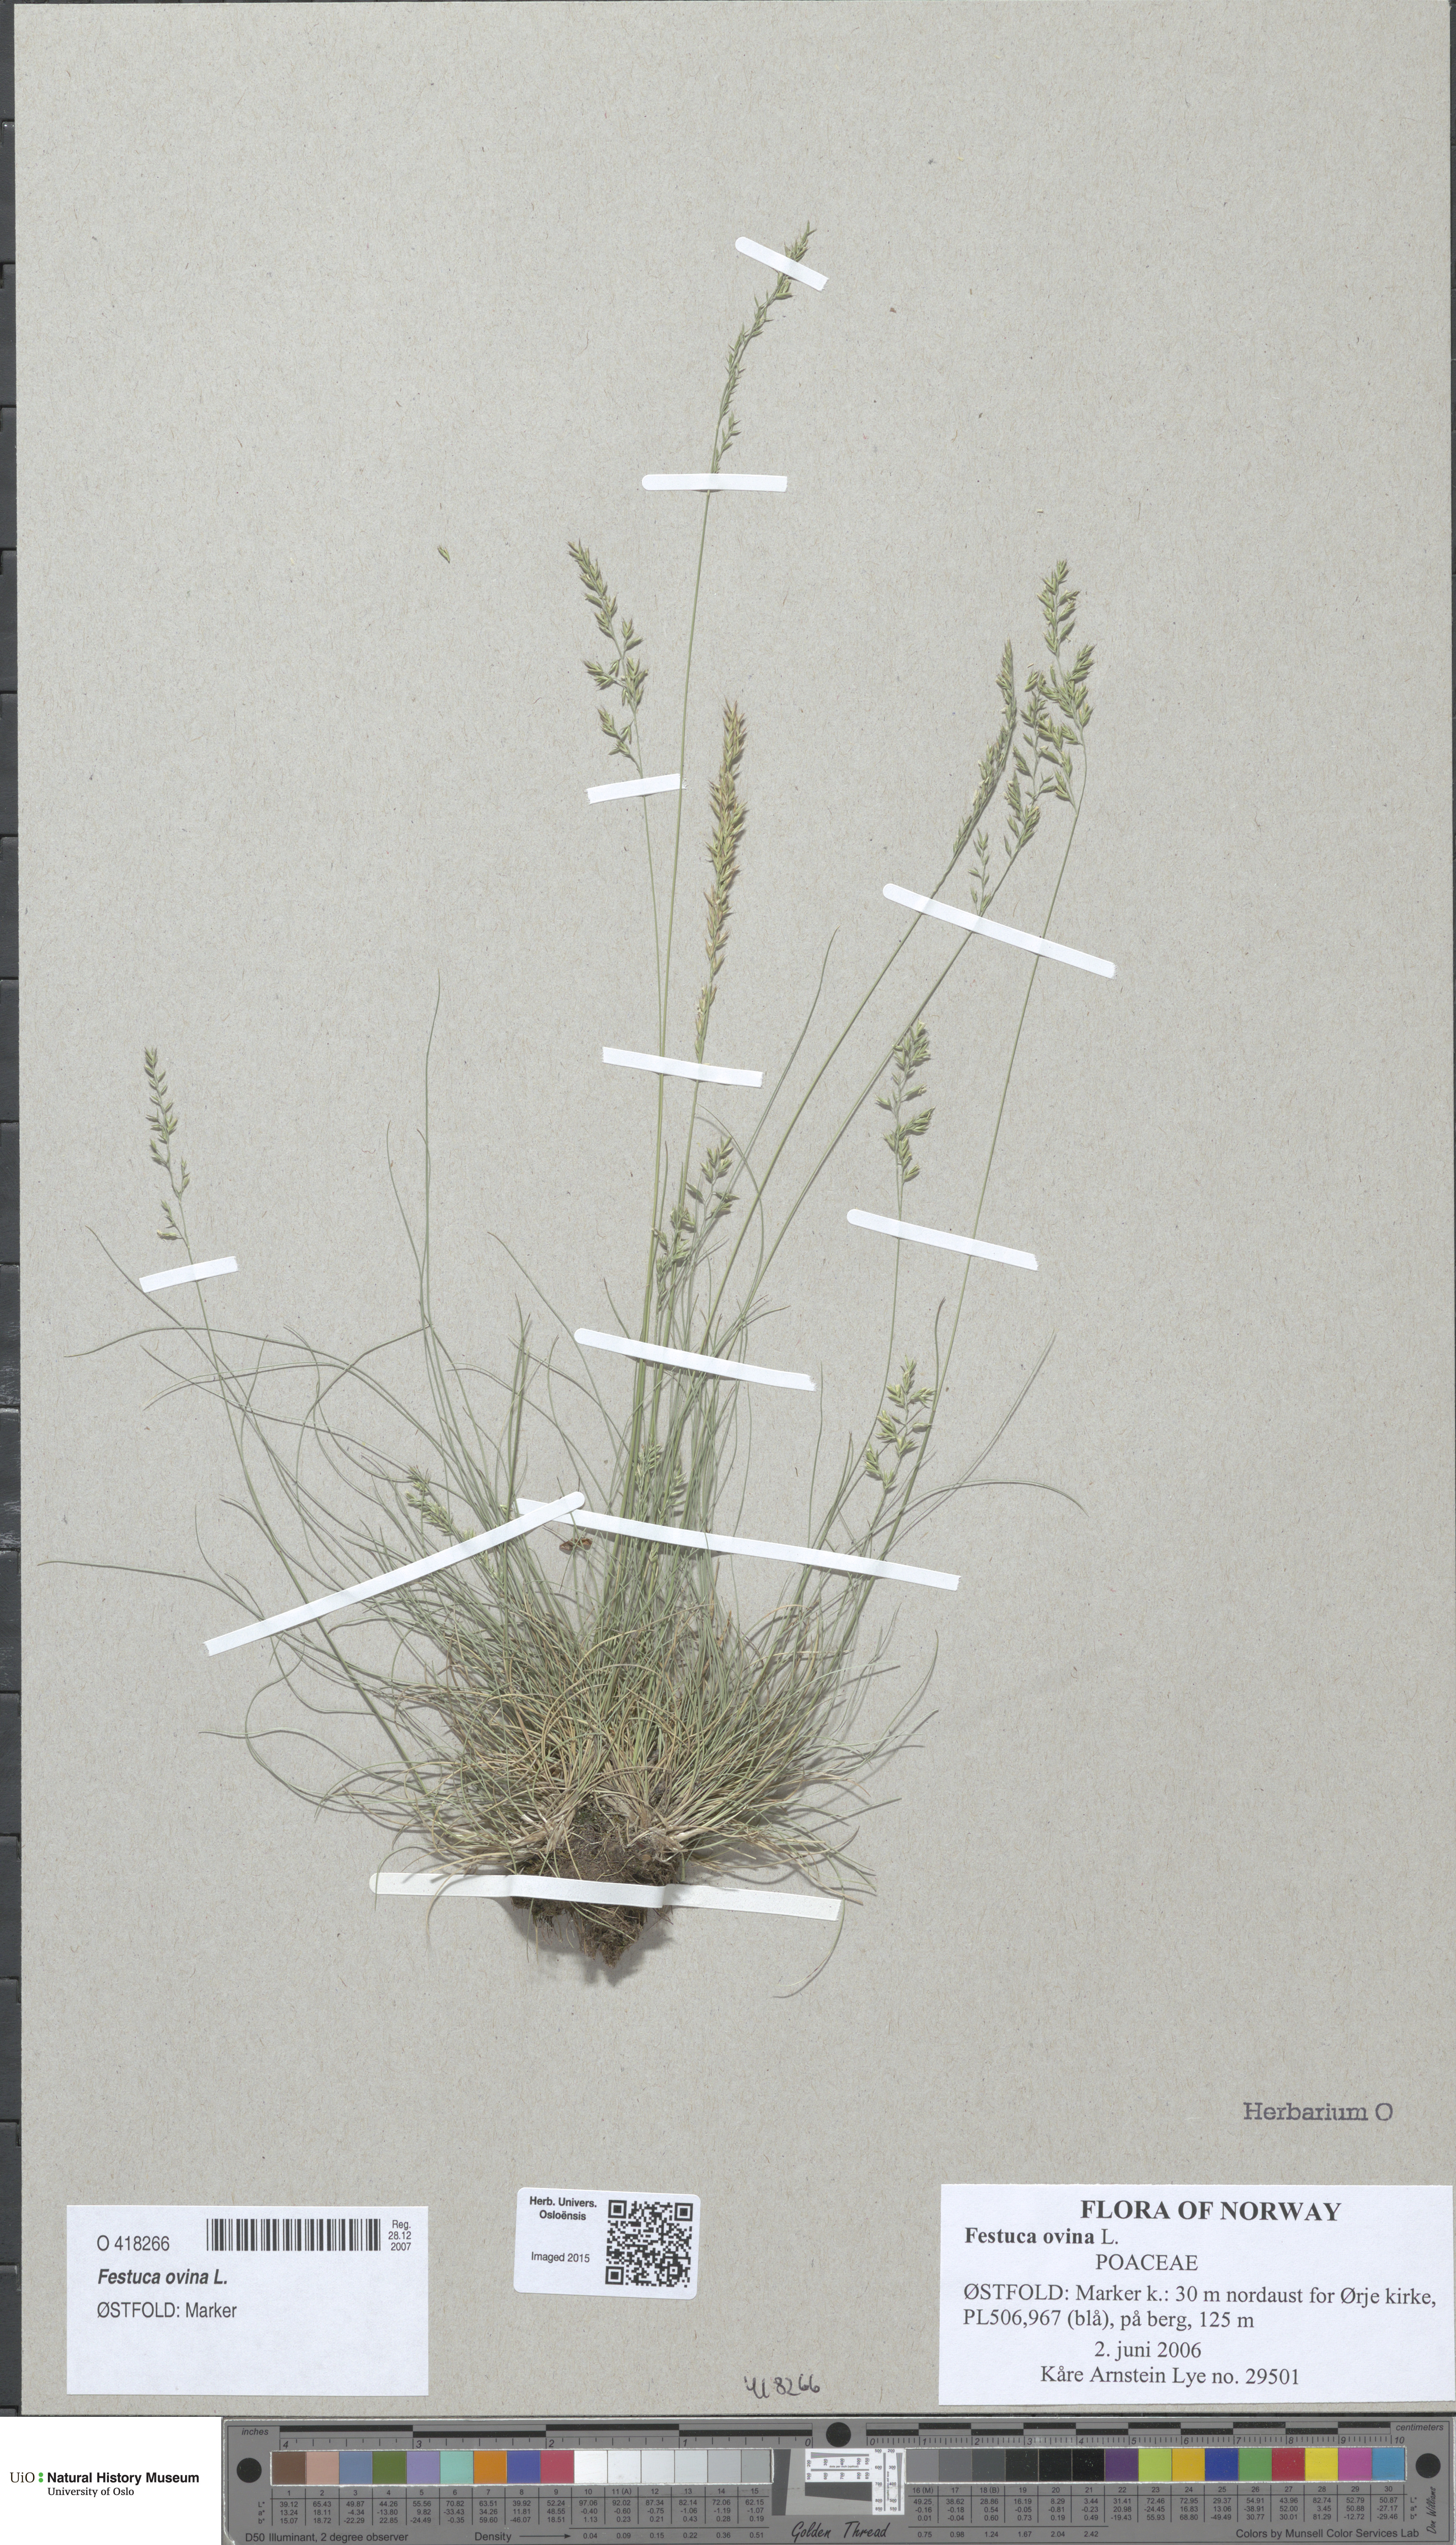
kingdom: Plantae
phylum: Tracheophyta
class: Liliopsida
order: Poales
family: Poaceae
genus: Festuca
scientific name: Festuca ovina
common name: Sheep fescue
